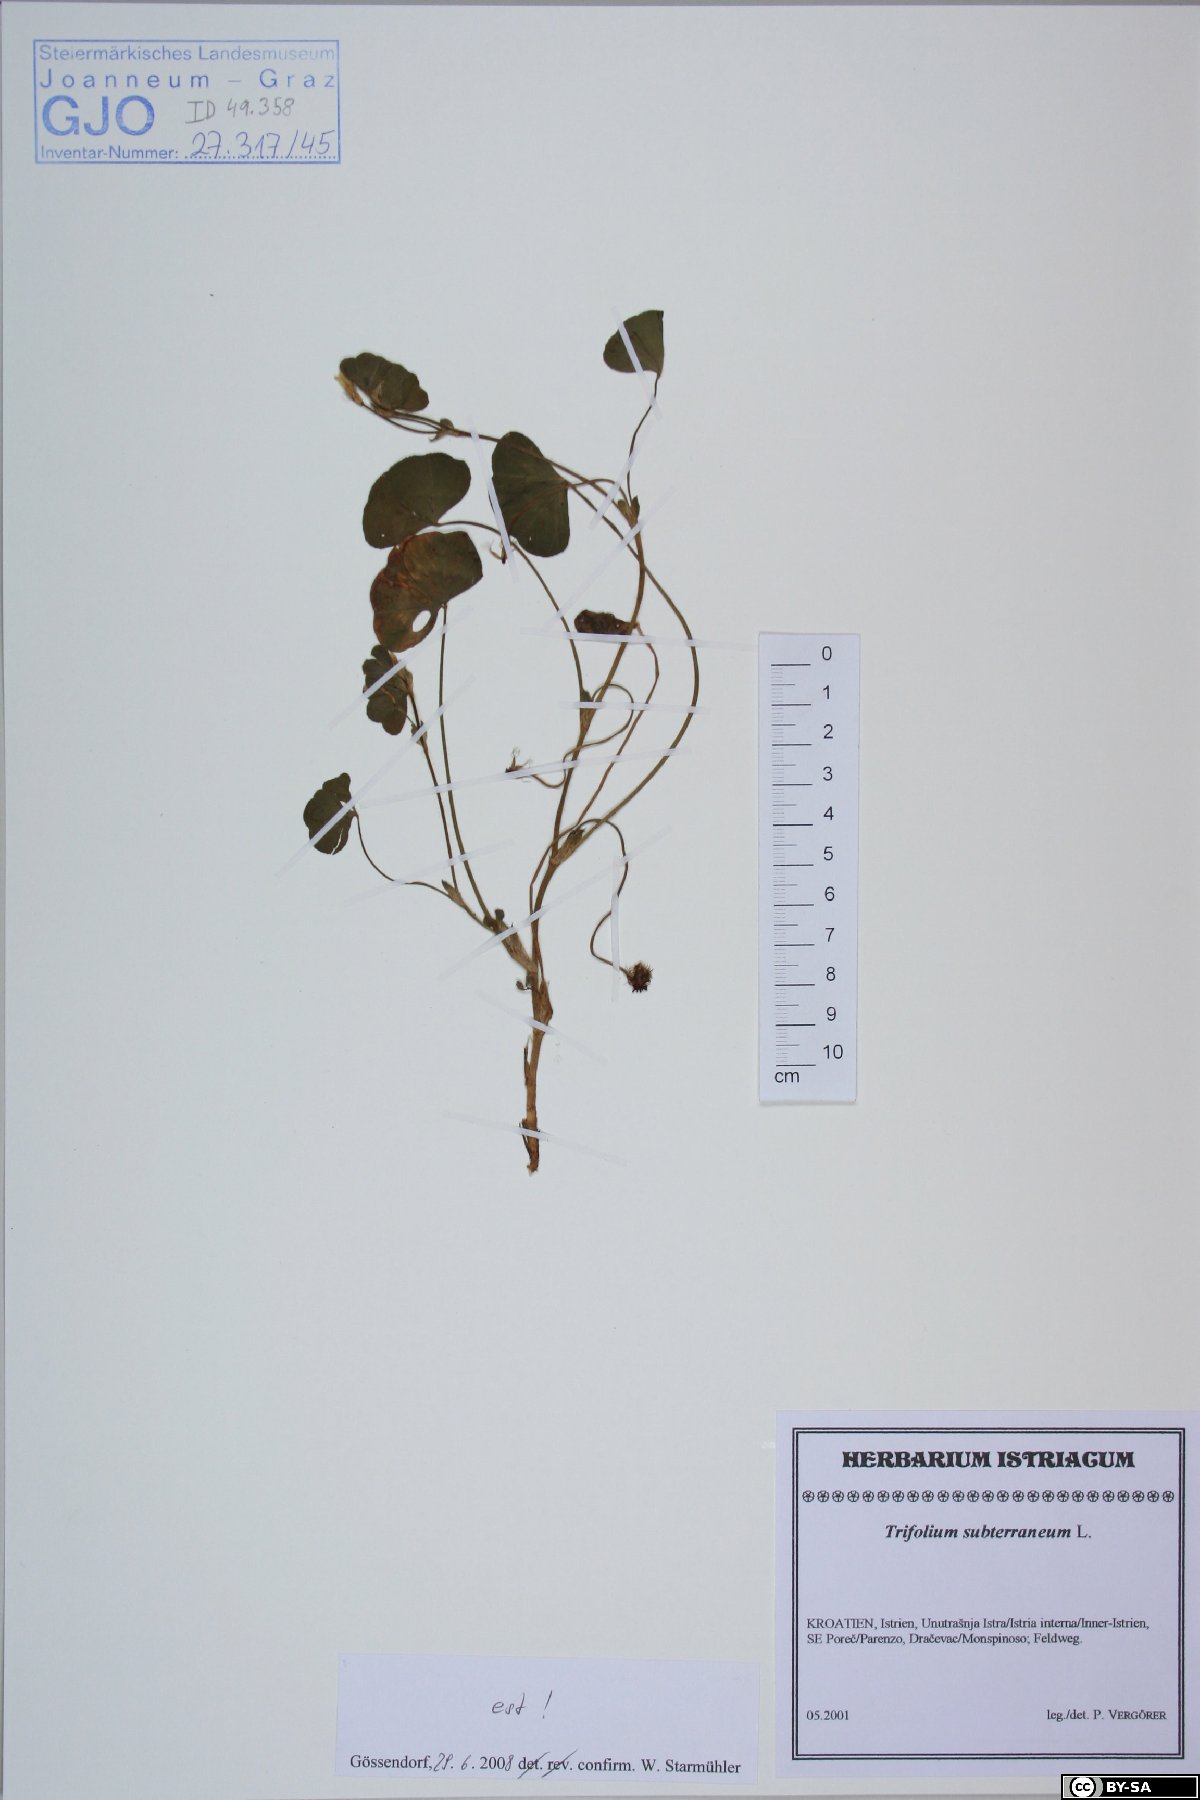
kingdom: Plantae
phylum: Tracheophyta
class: Magnoliopsida
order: Fabales
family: Fabaceae
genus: Trifolium
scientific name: Trifolium subterraneum
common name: Subterranean clover
